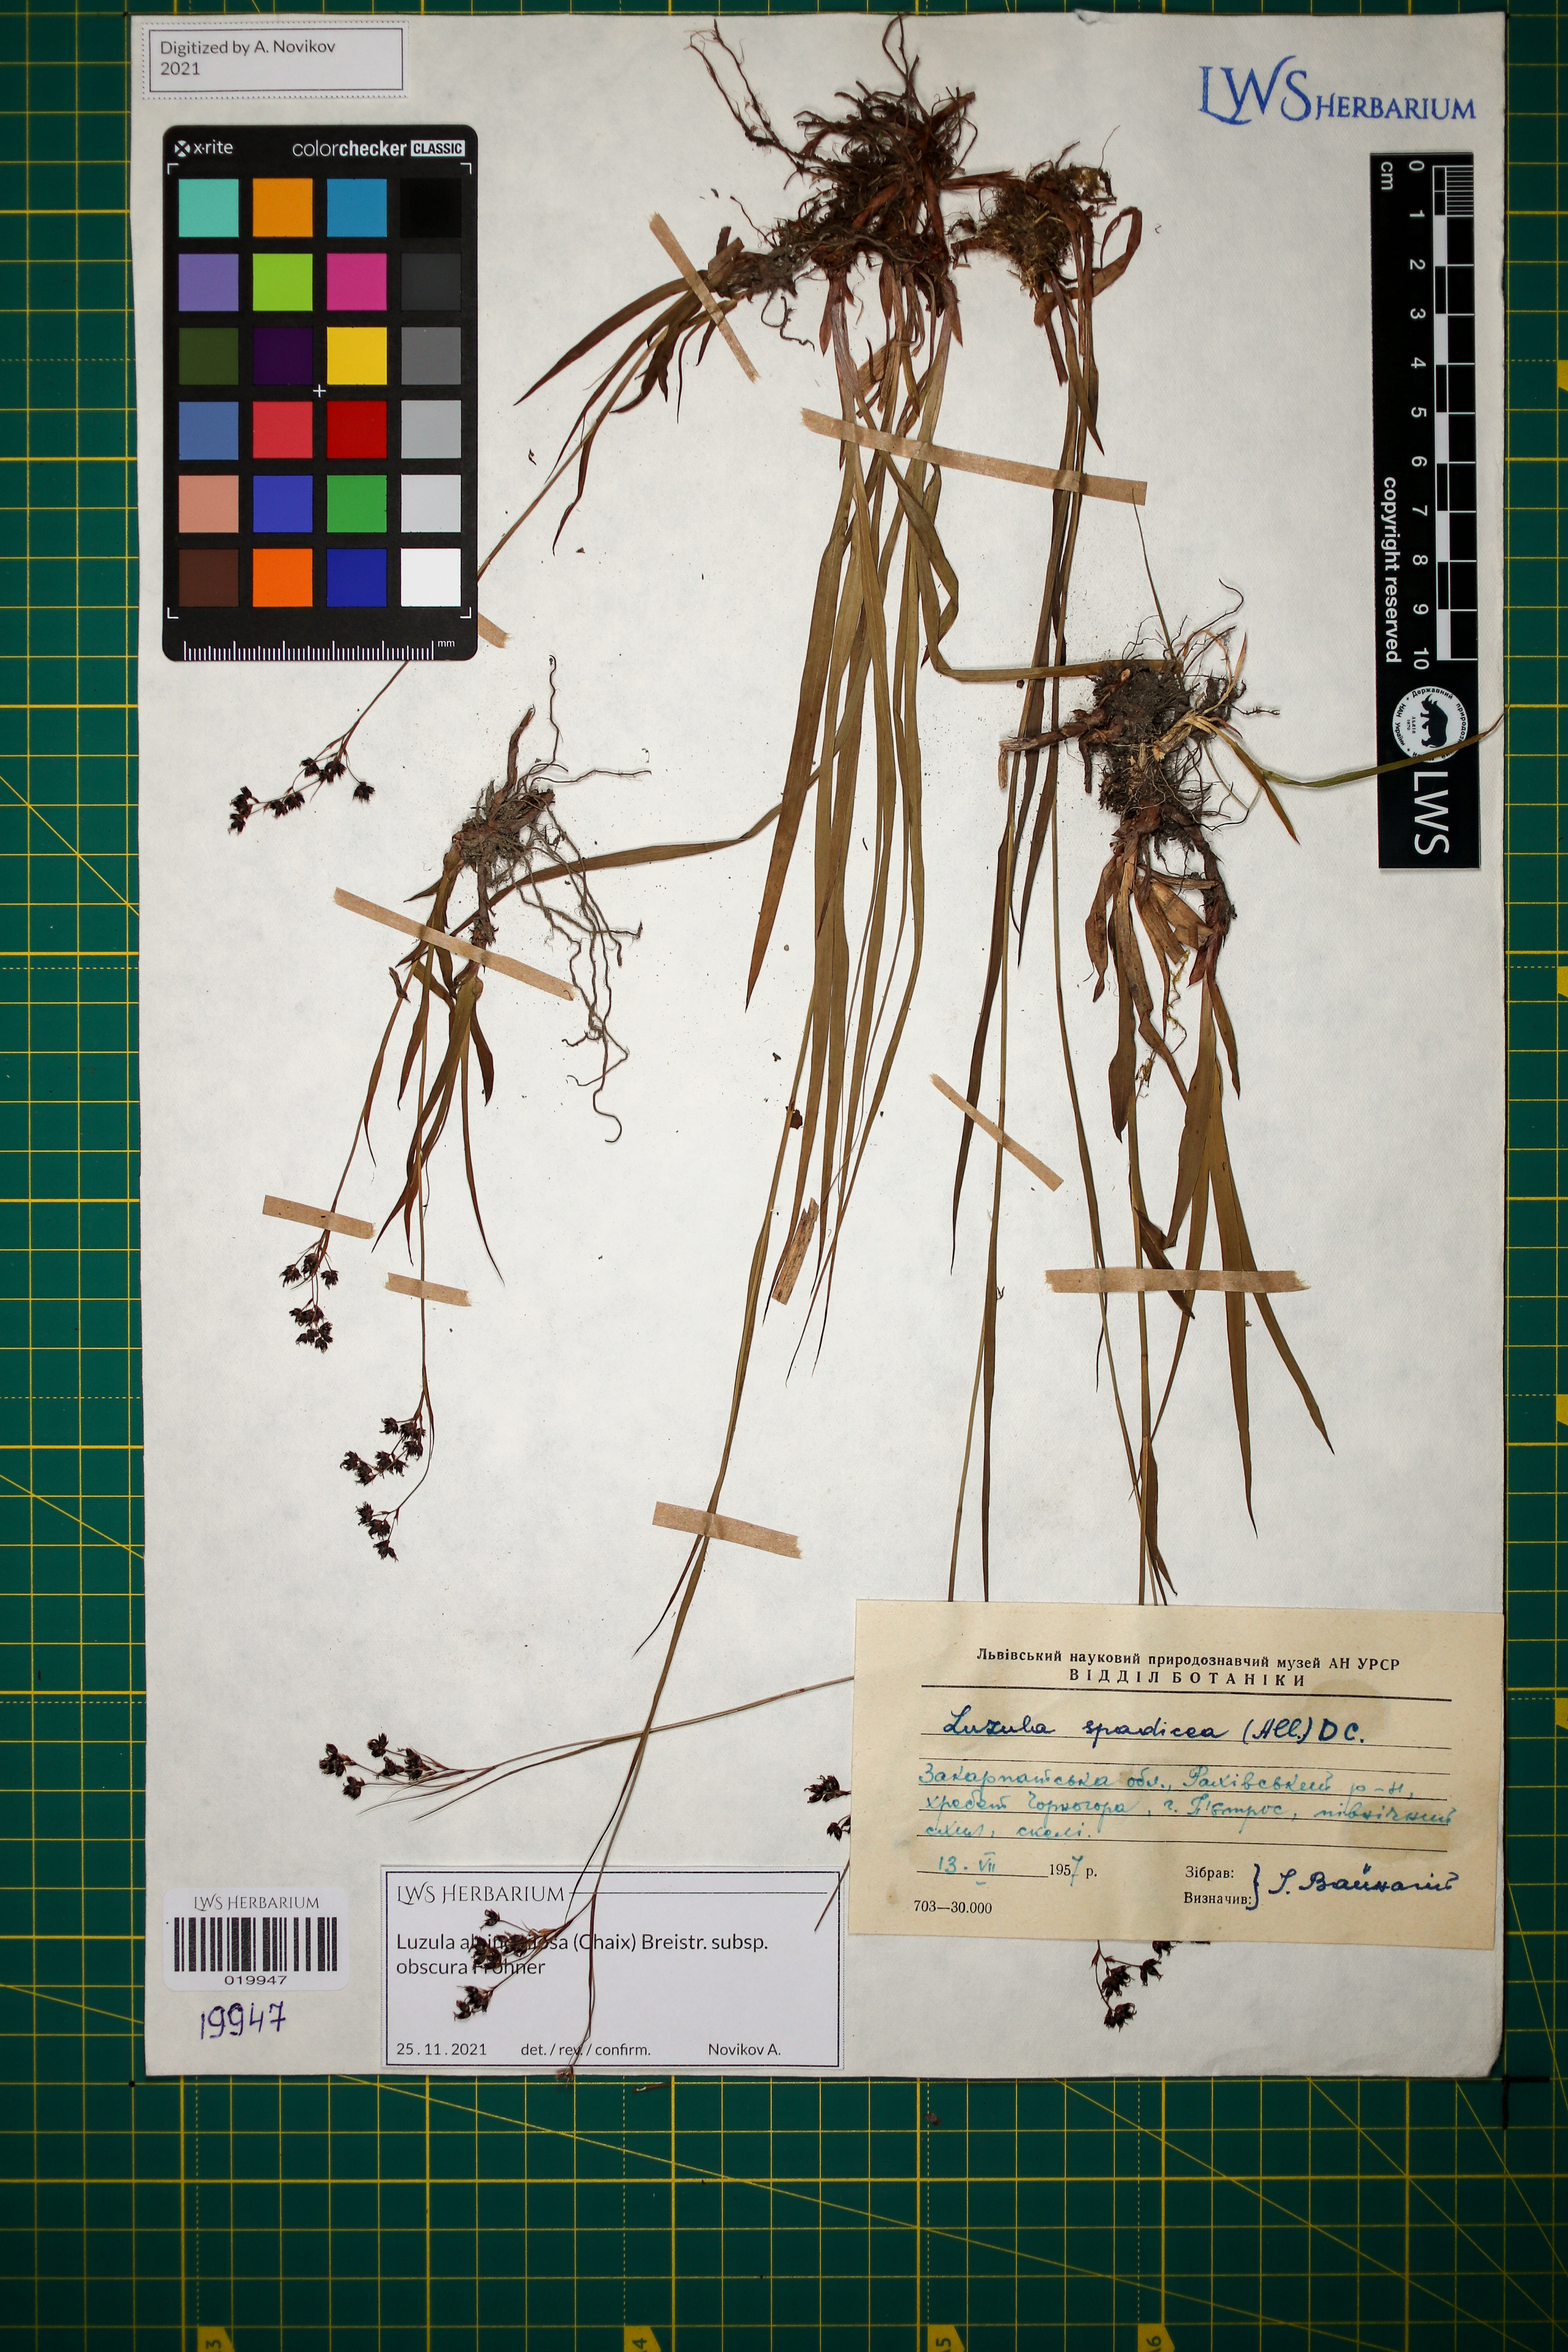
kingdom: Plantae
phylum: Tracheophyta
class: Liliopsida
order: Poales
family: Juncaceae
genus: Luzula
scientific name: Luzula alpinopilosa
